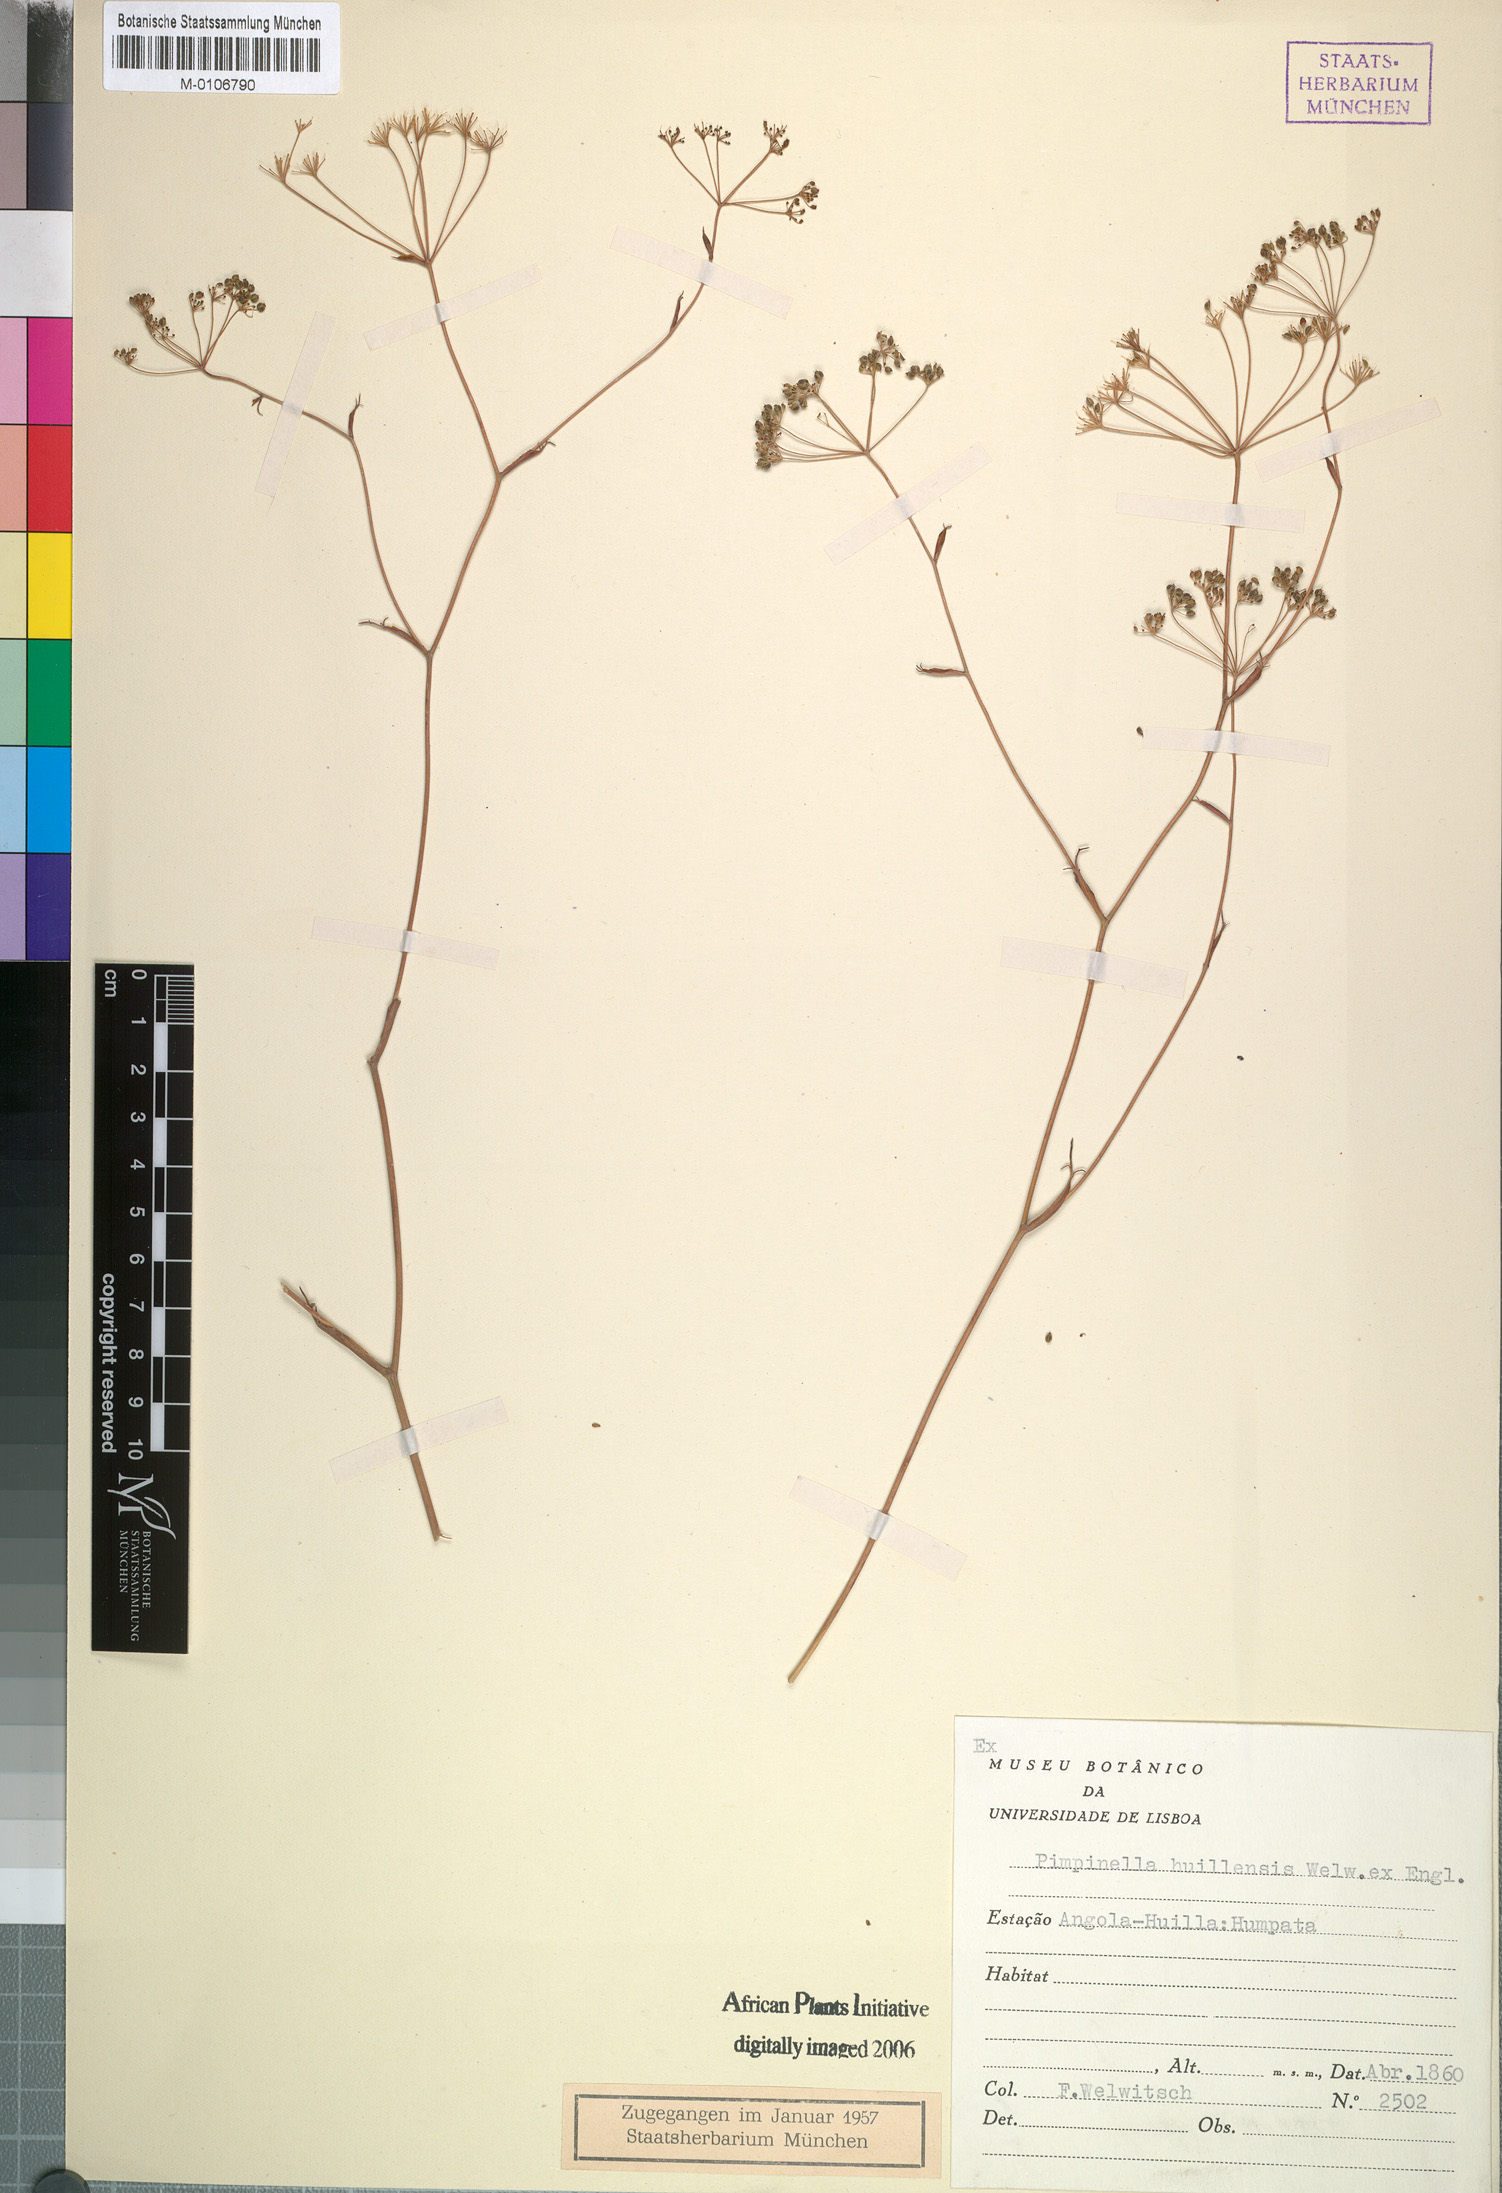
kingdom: Plantae
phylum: Tracheophyta
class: Magnoliopsida
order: Apiales
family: Apiaceae
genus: Pimpinella
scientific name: Pimpinella huillensis
